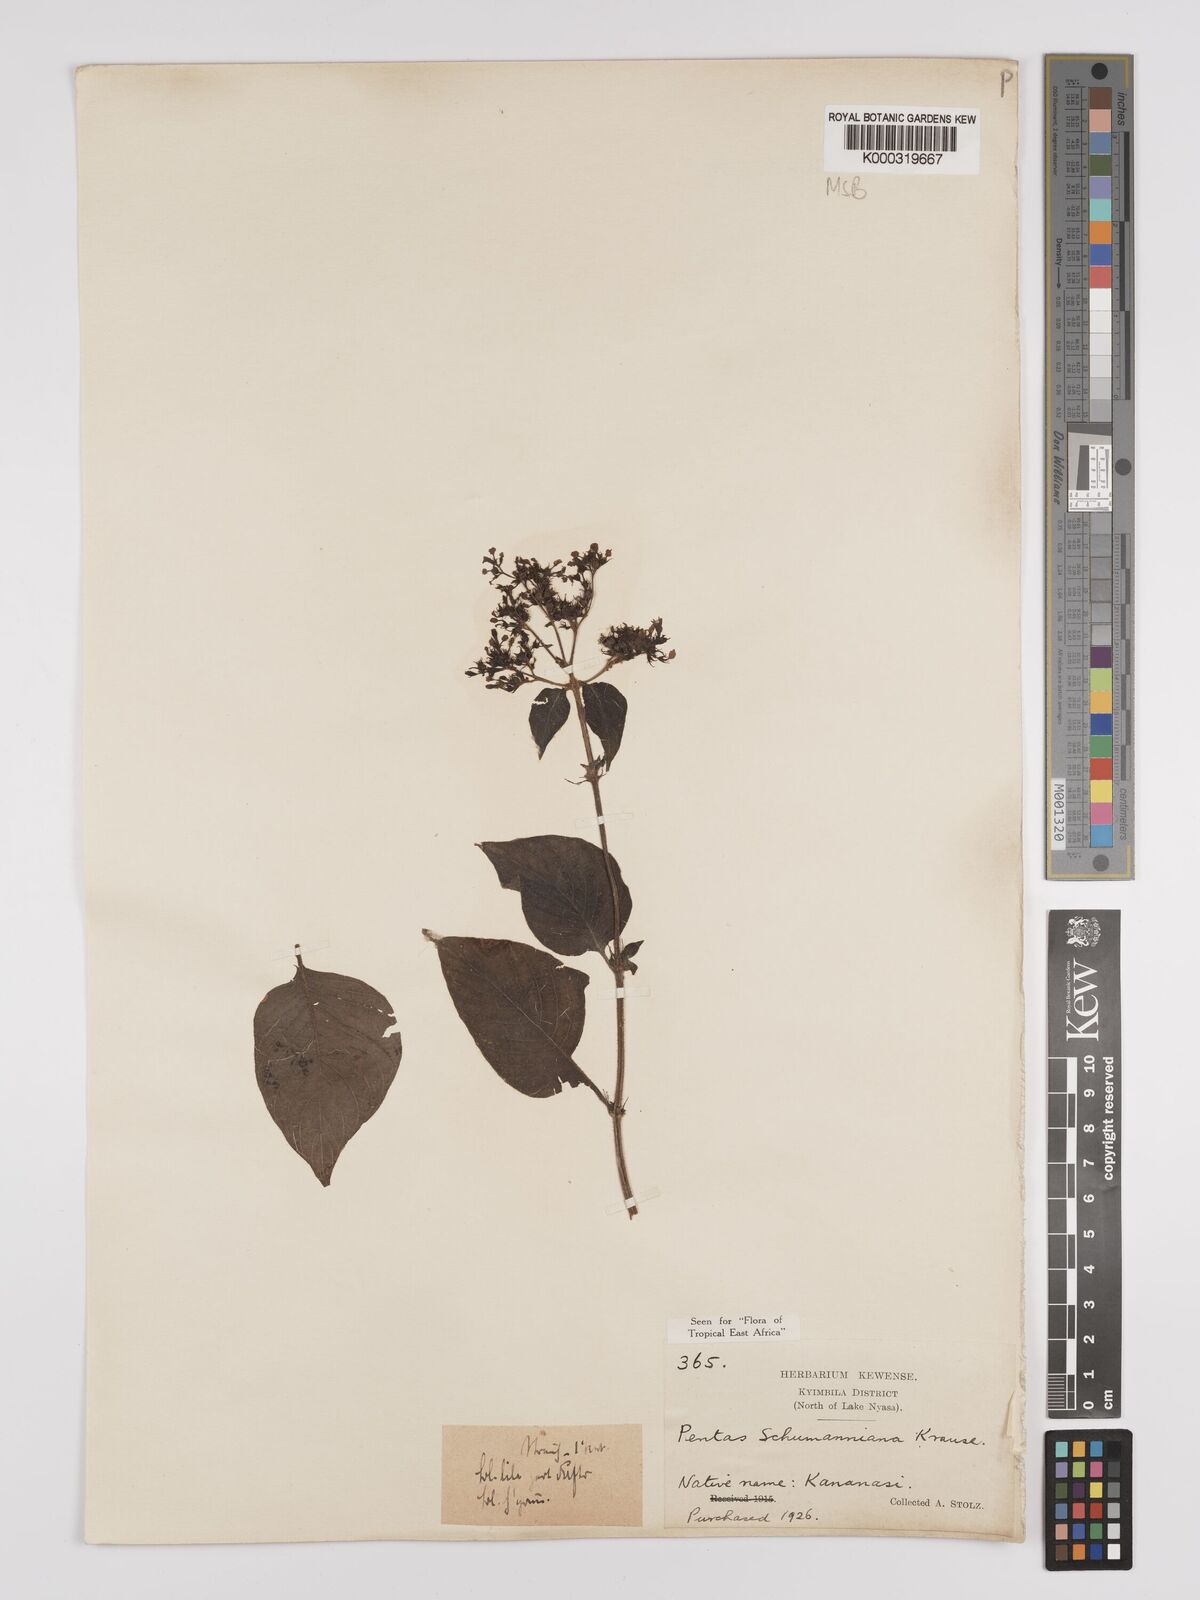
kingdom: Plantae
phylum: Tracheophyta
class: Magnoliopsida
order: Gentianales
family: Rubiaceae
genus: Phyllopentas
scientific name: Phyllopentas schumanniana
